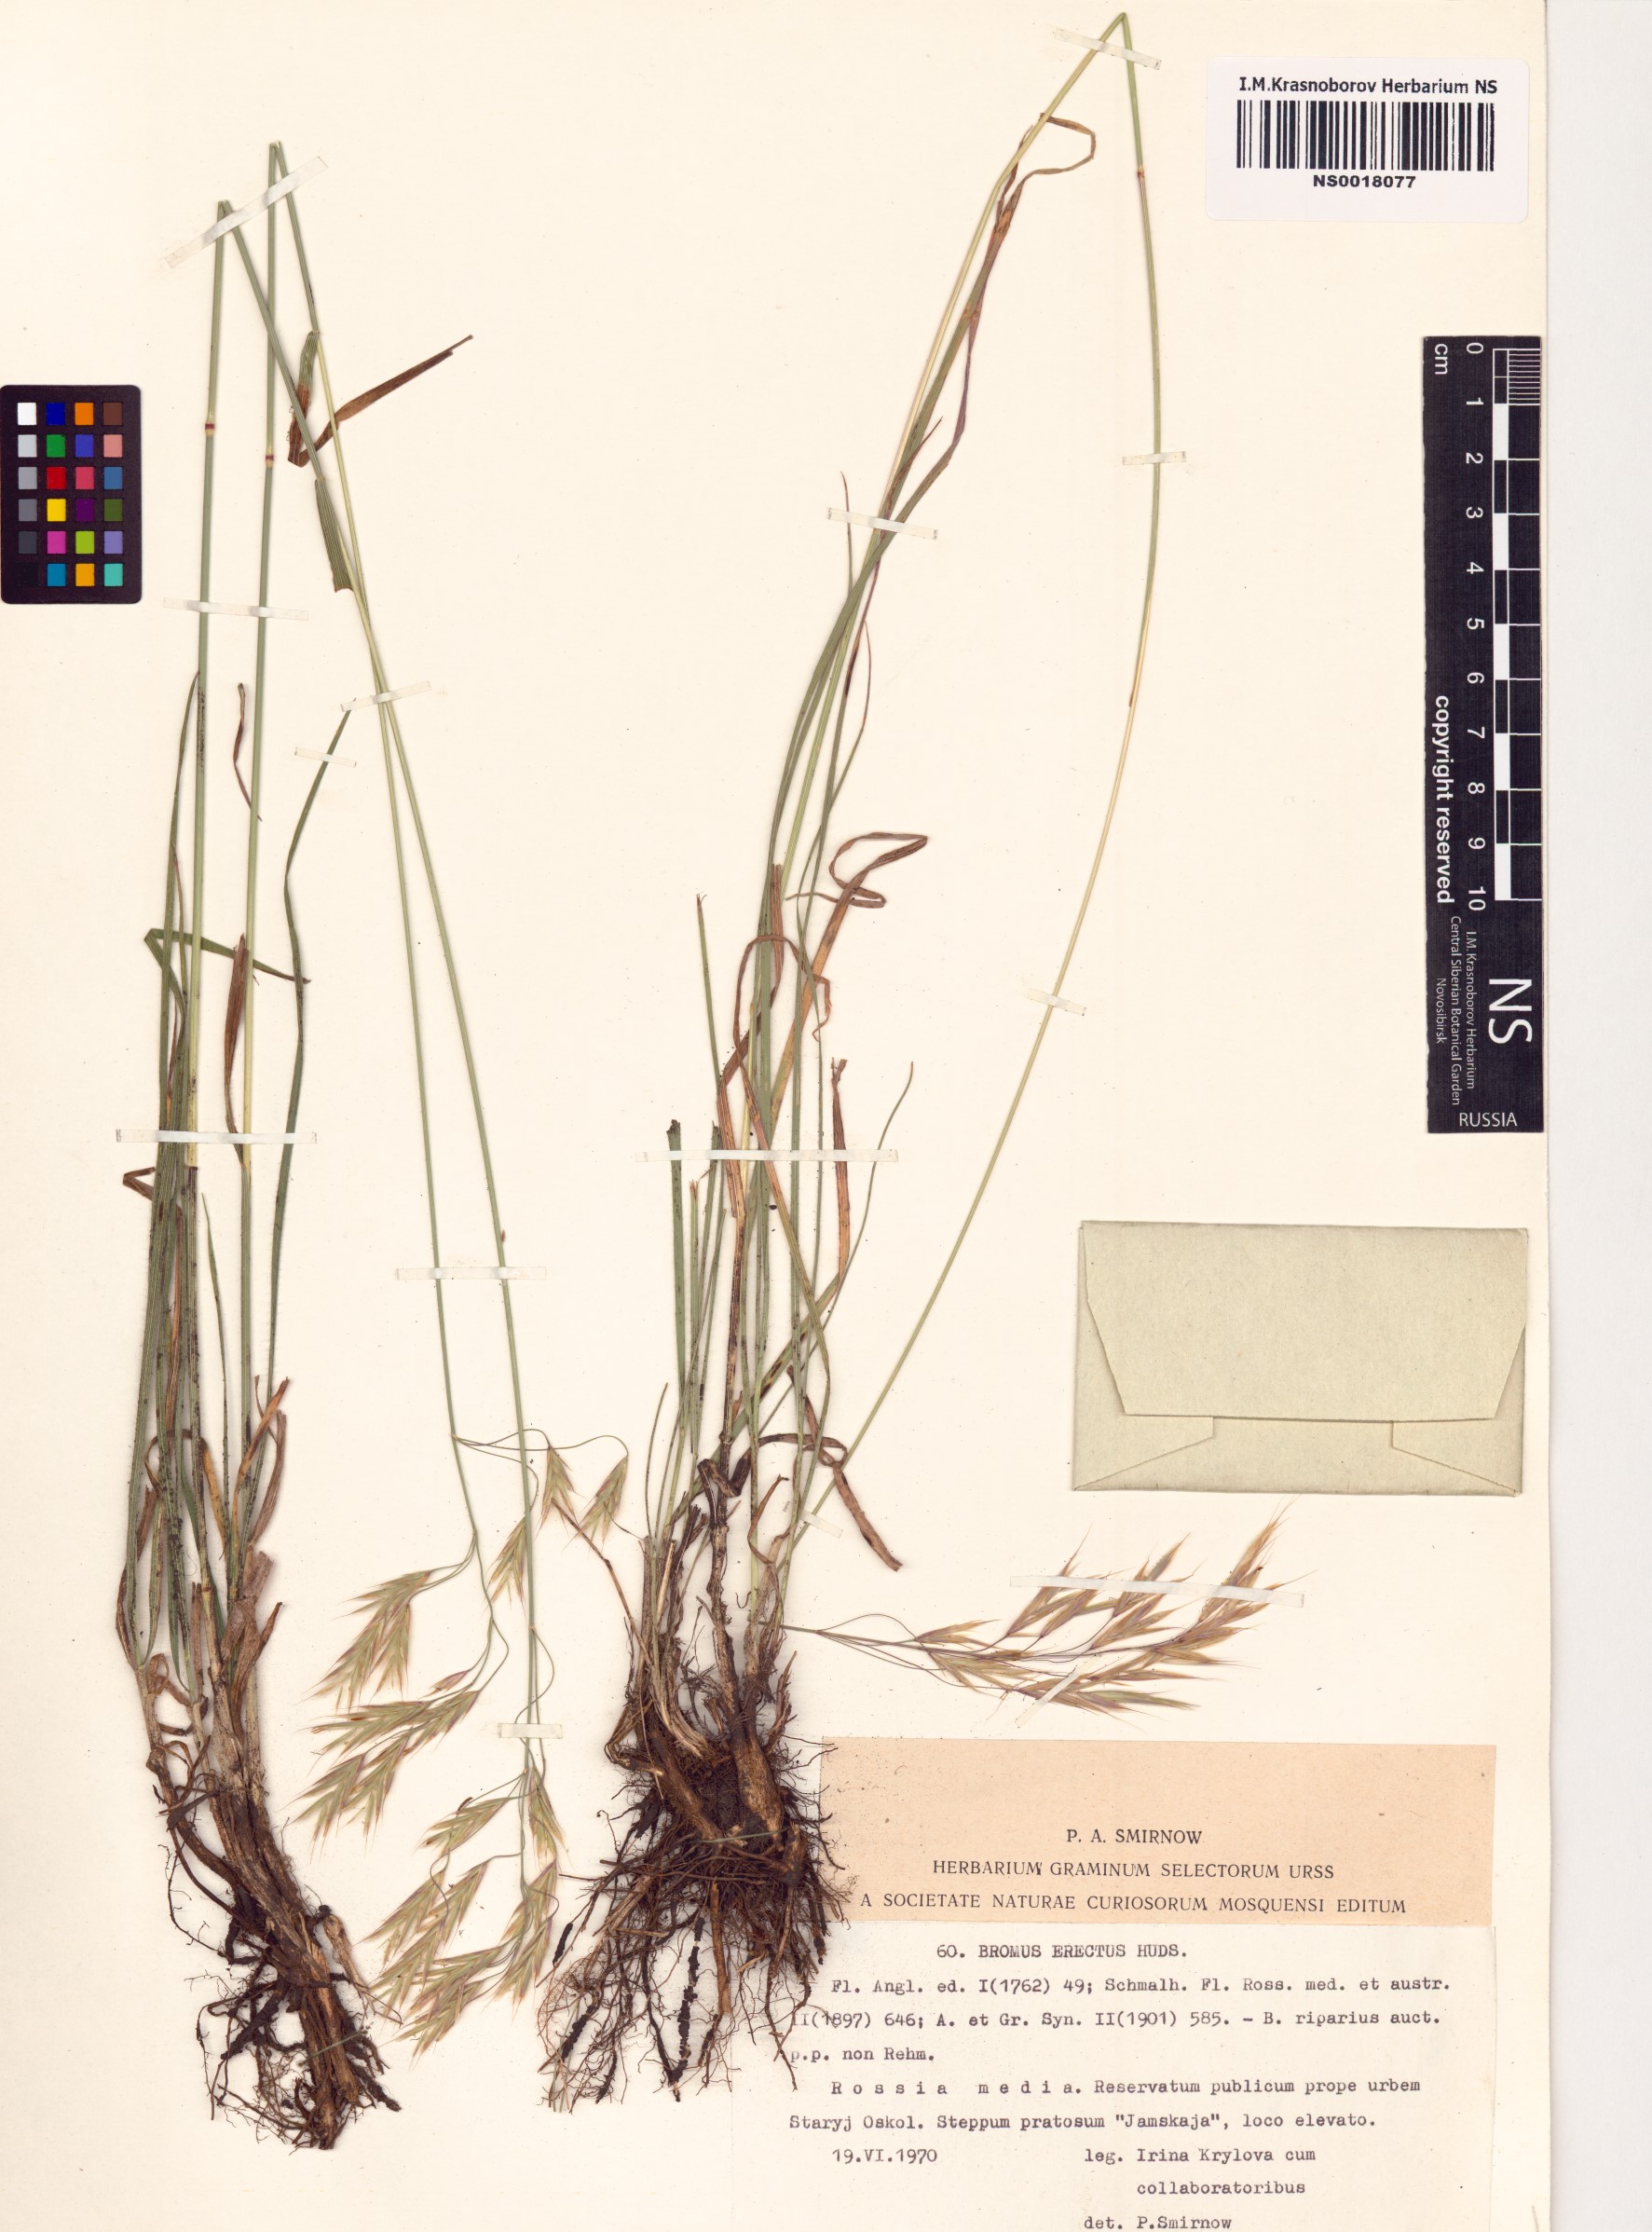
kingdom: Plantae
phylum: Tracheophyta
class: Liliopsida
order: Poales
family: Poaceae
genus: Bromus
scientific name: Bromus erectus
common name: Erect brome
